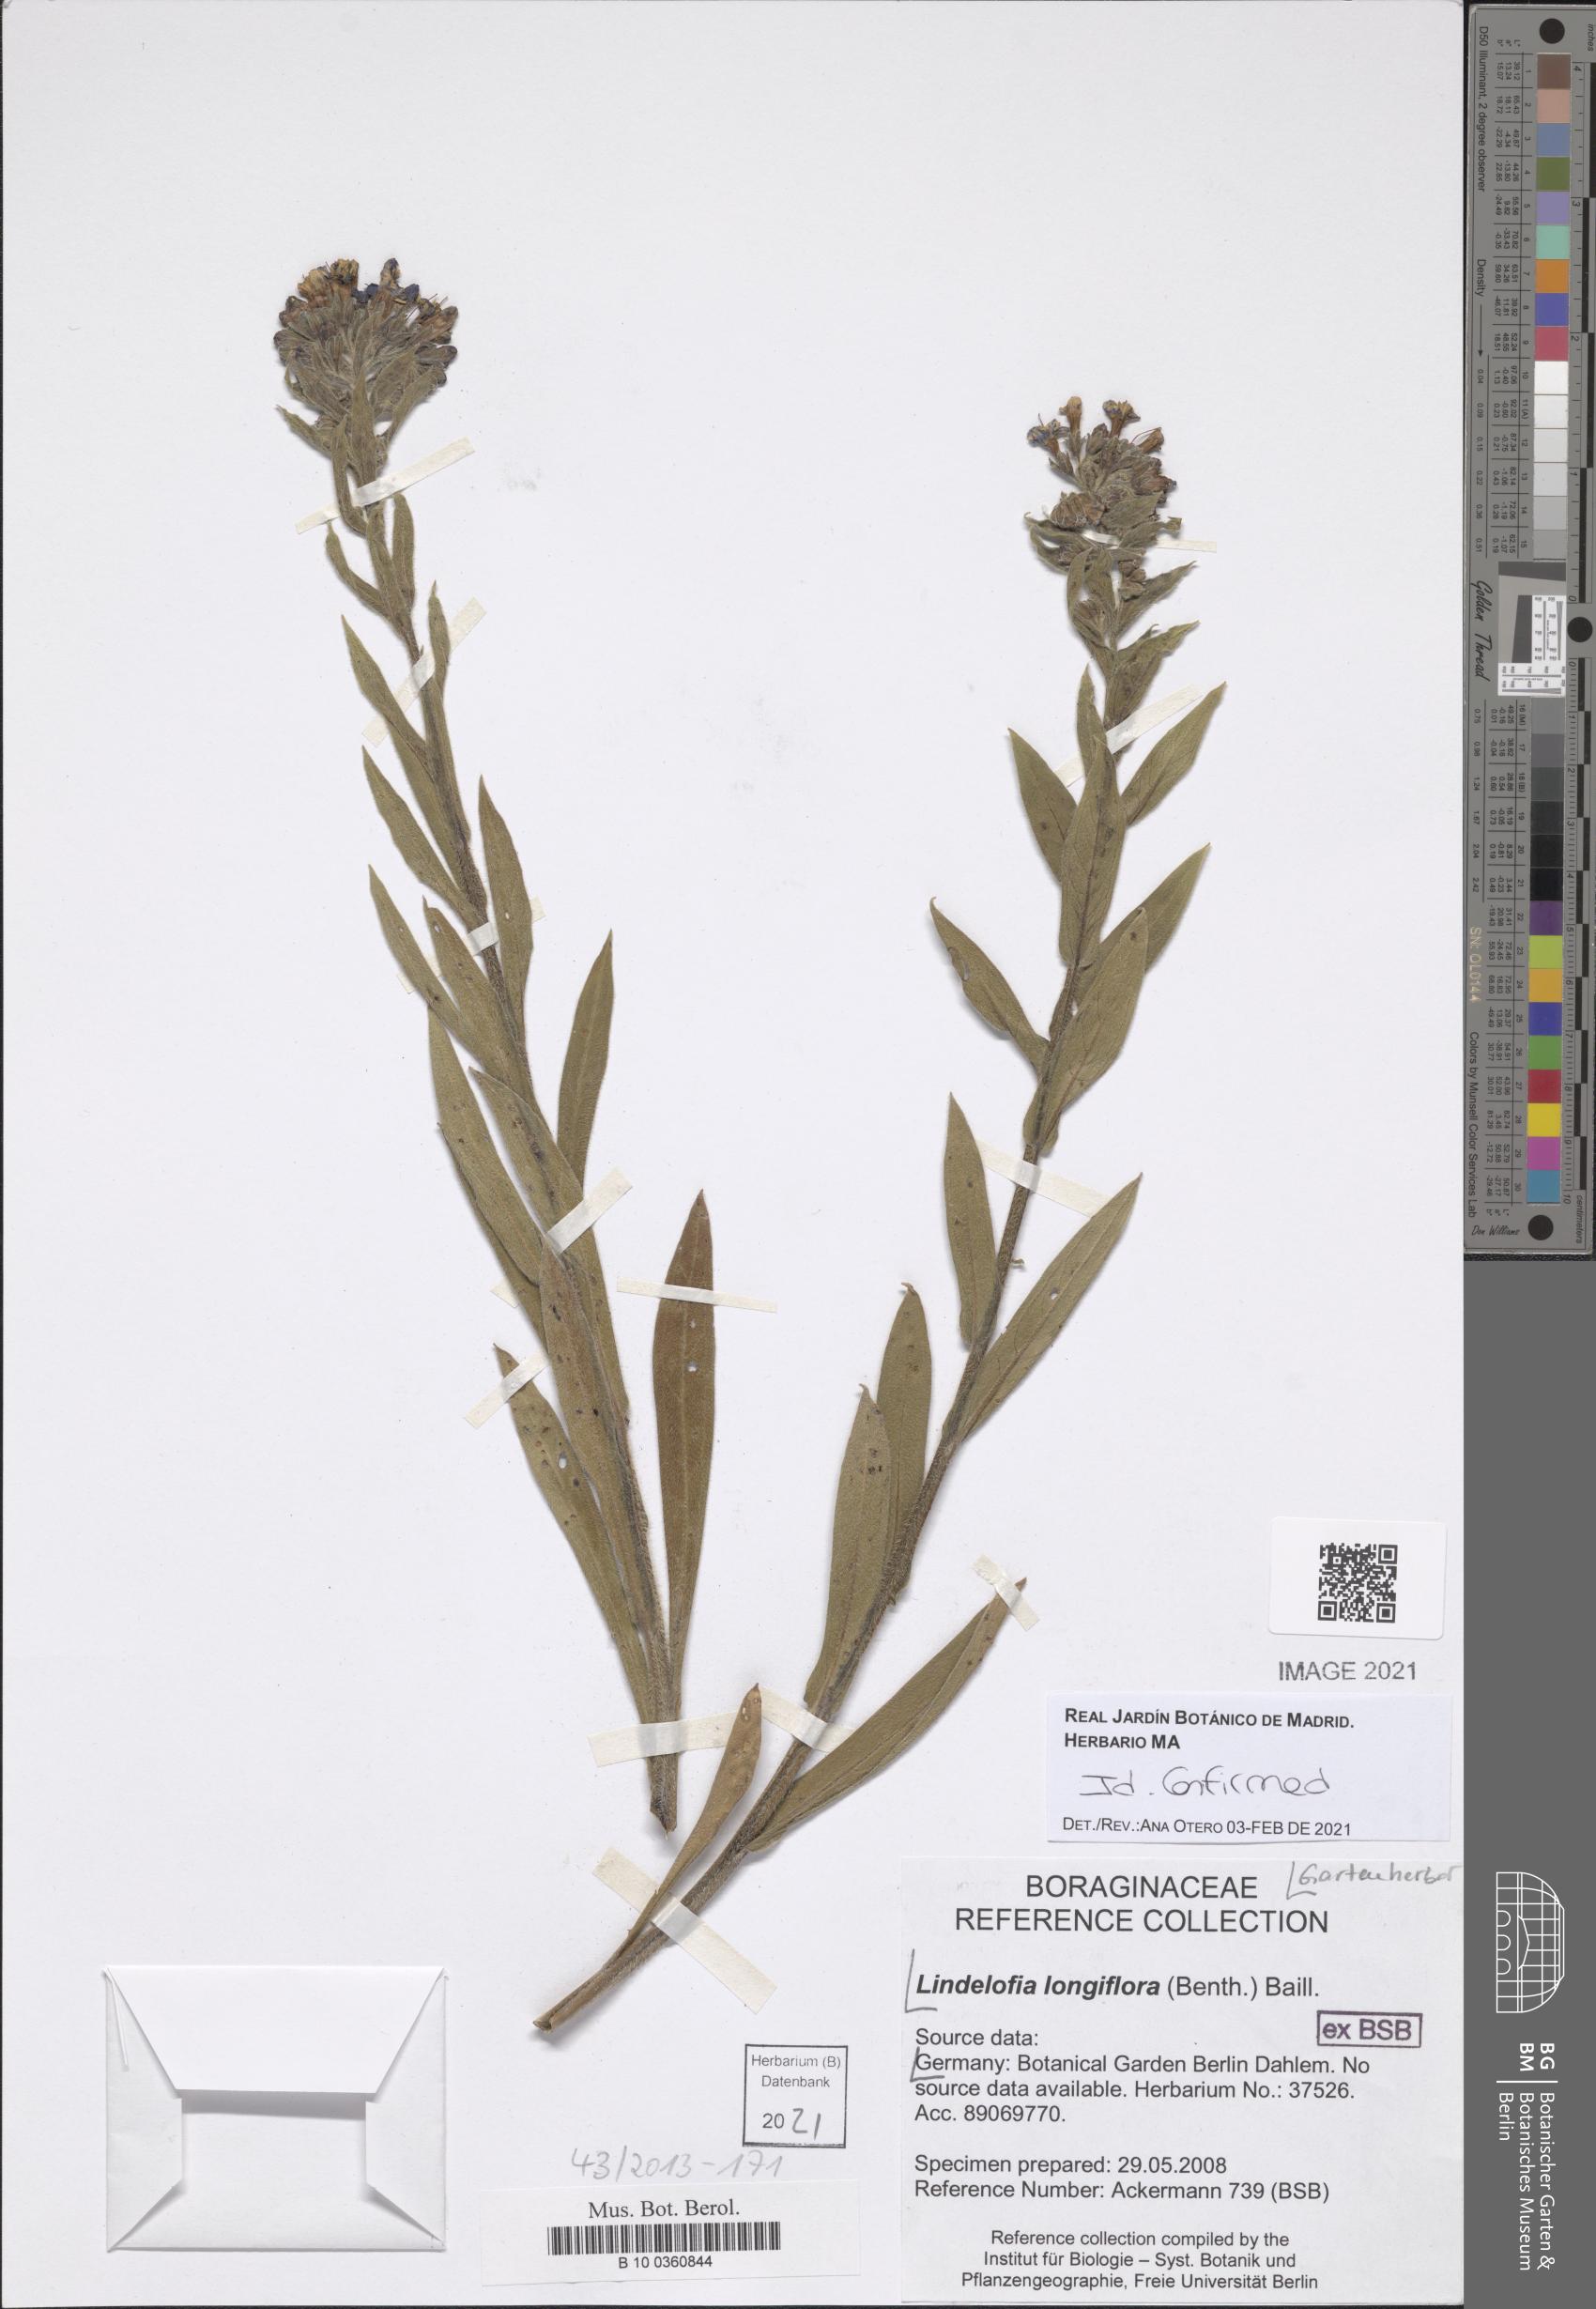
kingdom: Plantae
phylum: Tracheophyta
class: Magnoliopsida
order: Boraginales
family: Boraginaceae
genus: Lindelofia
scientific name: Lindelofia
